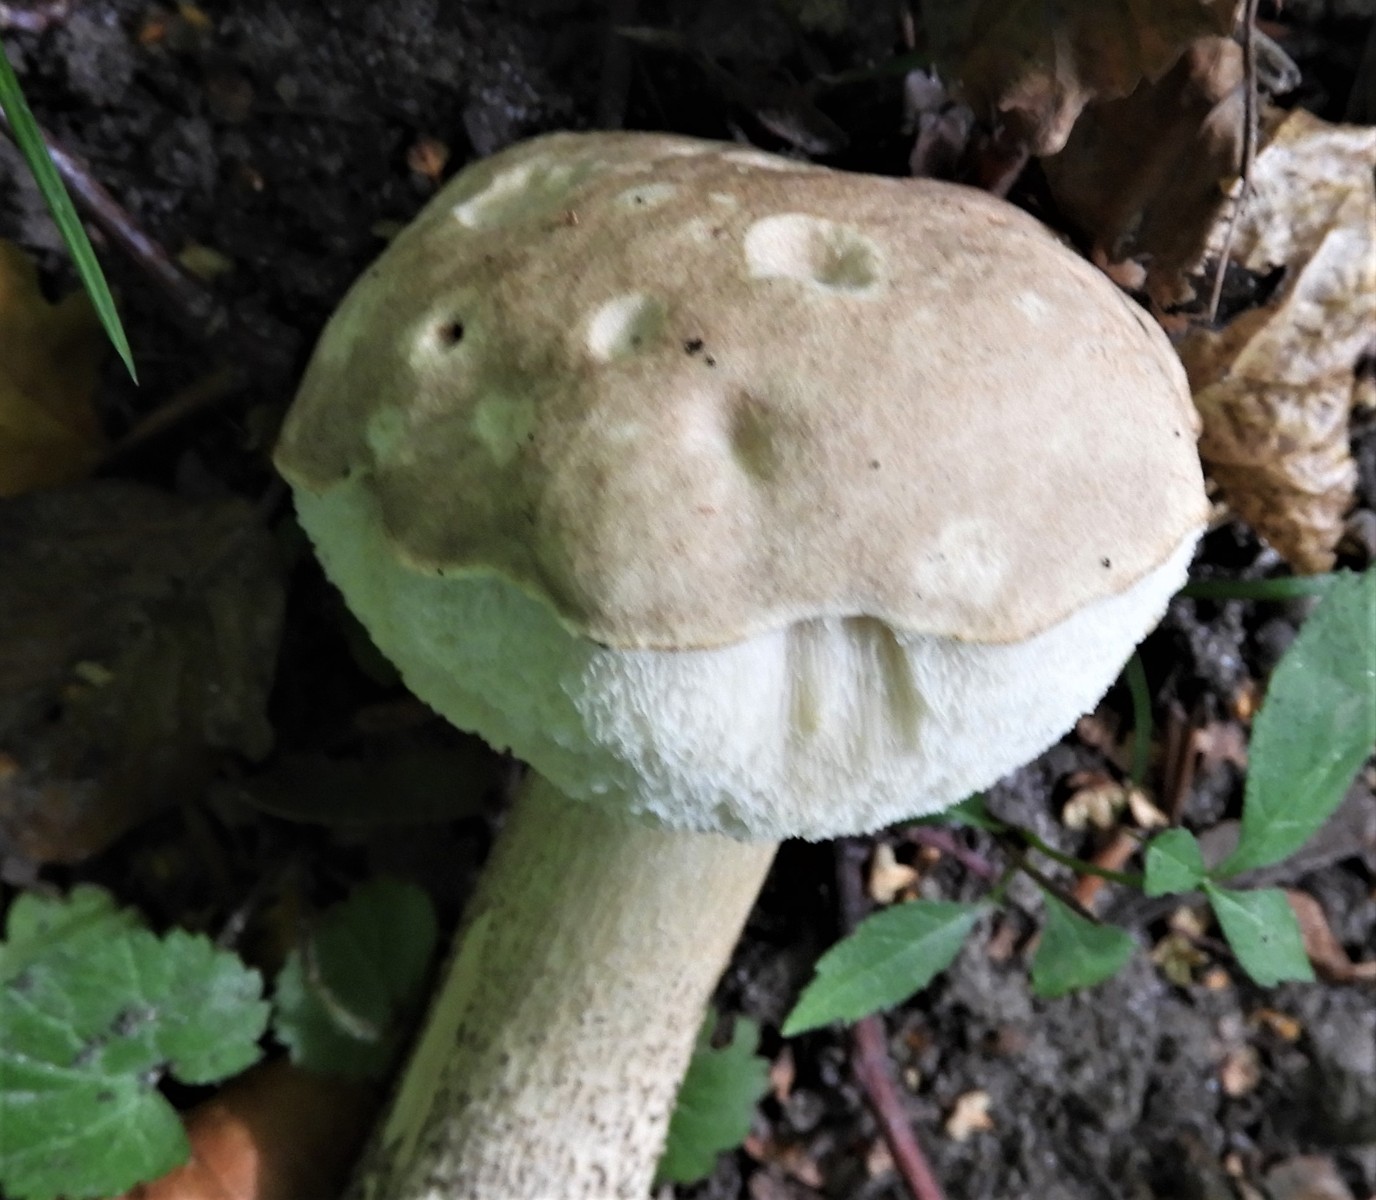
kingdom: Fungi
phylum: Basidiomycota
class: Agaricomycetes
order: Boletales
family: Boletaceae
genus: Leccinum
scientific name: Leccinum
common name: skælrørhat
